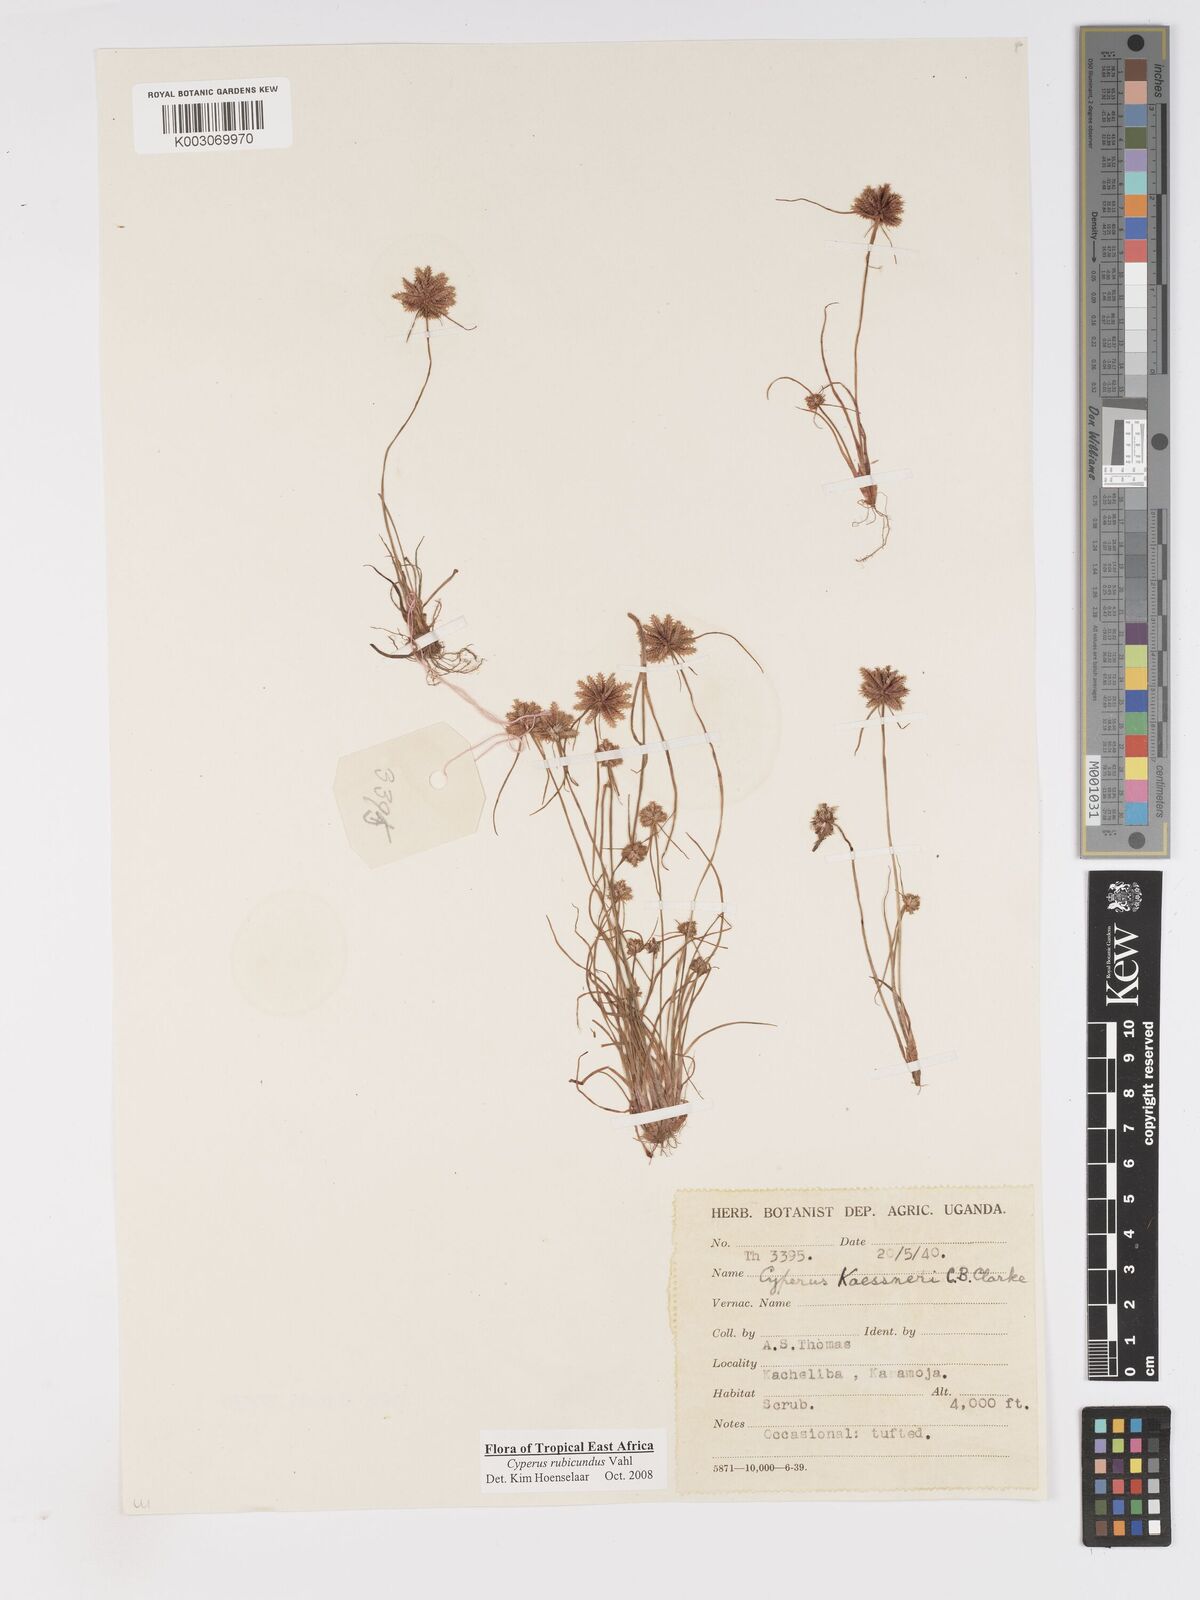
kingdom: Plantae
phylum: Tracheophyta
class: Liliopsida
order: Poales
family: Cyperaceae
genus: Cyperus
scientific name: Cyperus rubicundus
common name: Coco-grass
